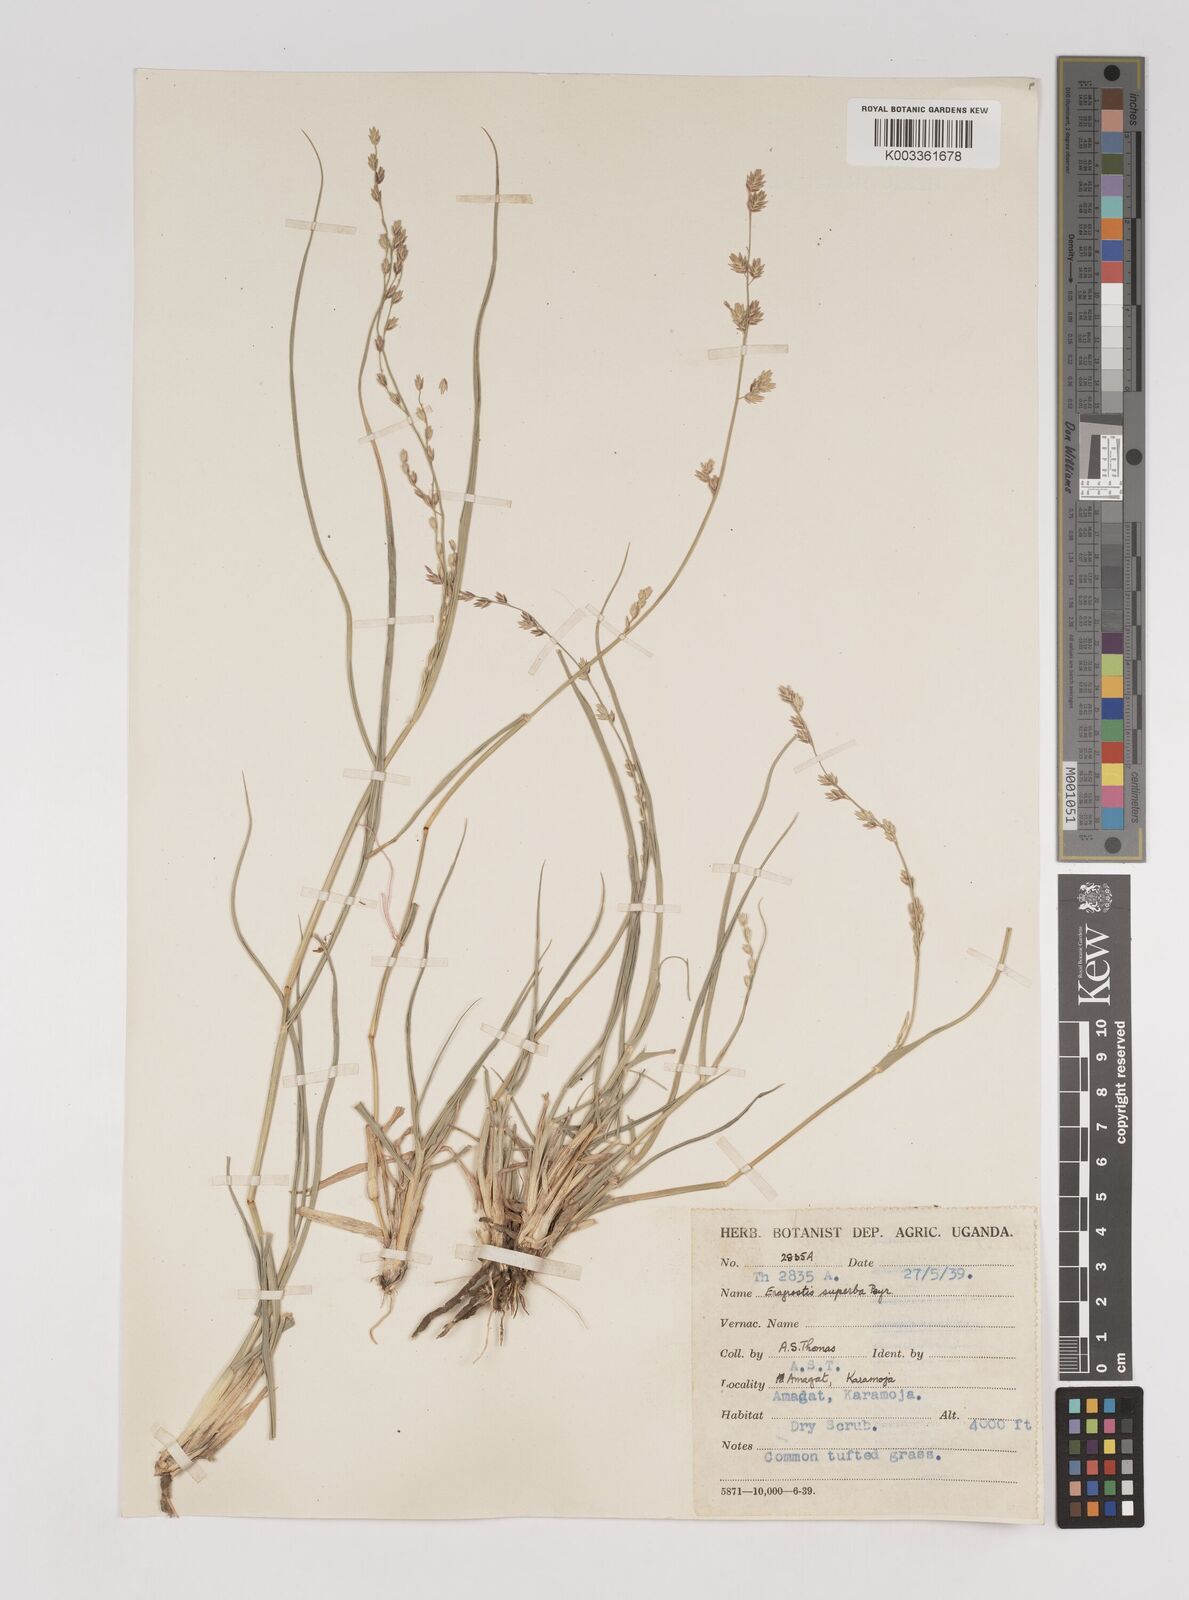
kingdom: Plantae
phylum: Tracheophyta
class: Liliopsida
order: Poales
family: Poaceae
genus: Eragrostis
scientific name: Eragrostis superba
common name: Wilman lovegrass
